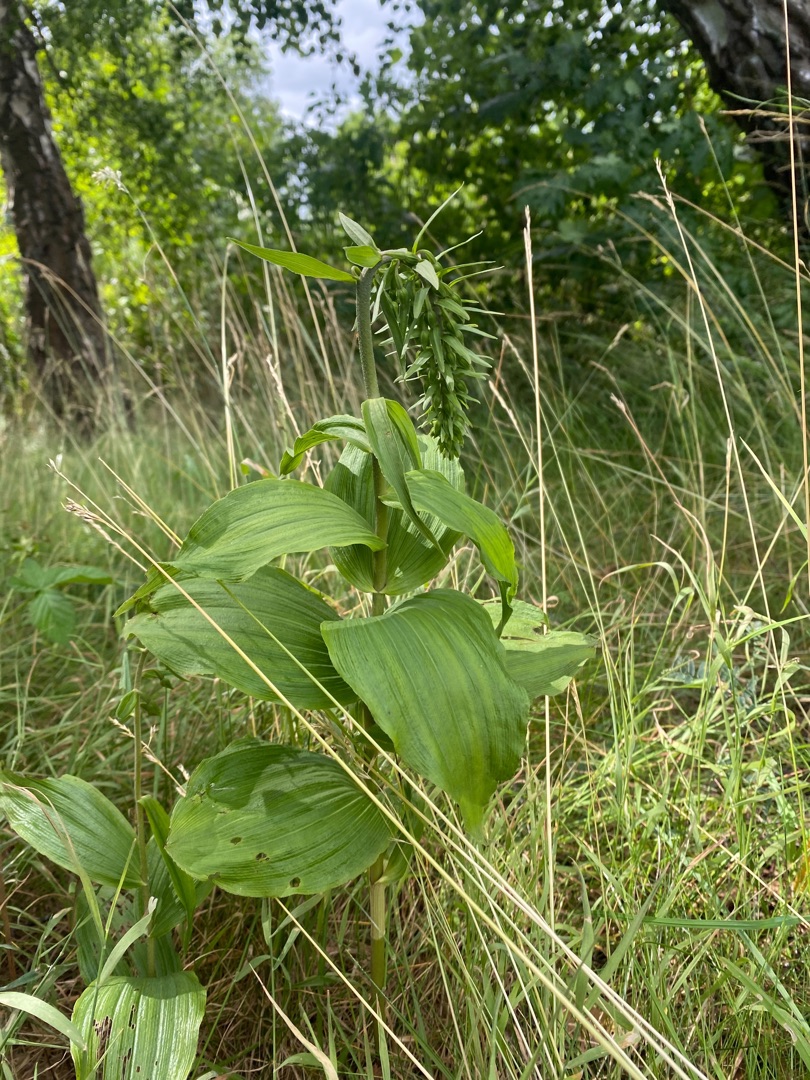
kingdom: Plantae
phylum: Tracheophyta
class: Liliopsida
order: Asparagales
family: Orchidaceae
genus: Epipactis
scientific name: Epipactis helleborine
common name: Skov-hullæbe
